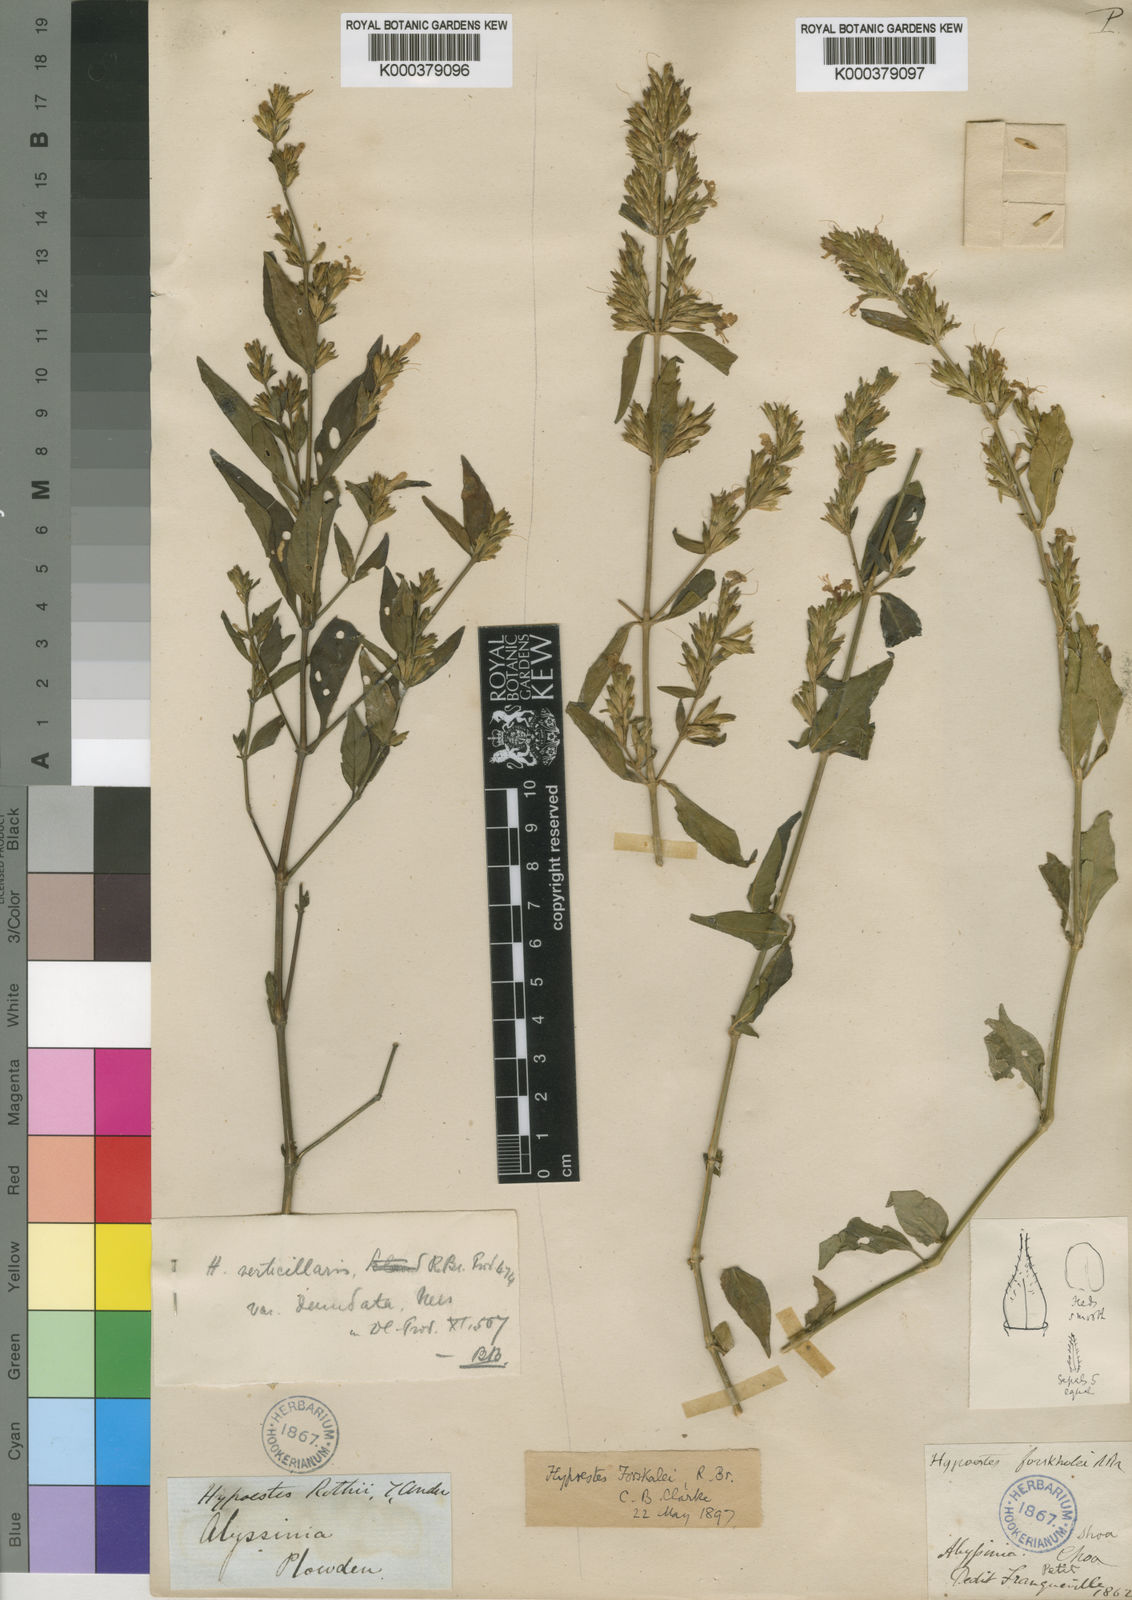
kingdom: Plantae
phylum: Tracheophyta
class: Magnoliopsida
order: Lamiales
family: Acanthaceae
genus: Hypoestes
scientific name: Hypoestes
